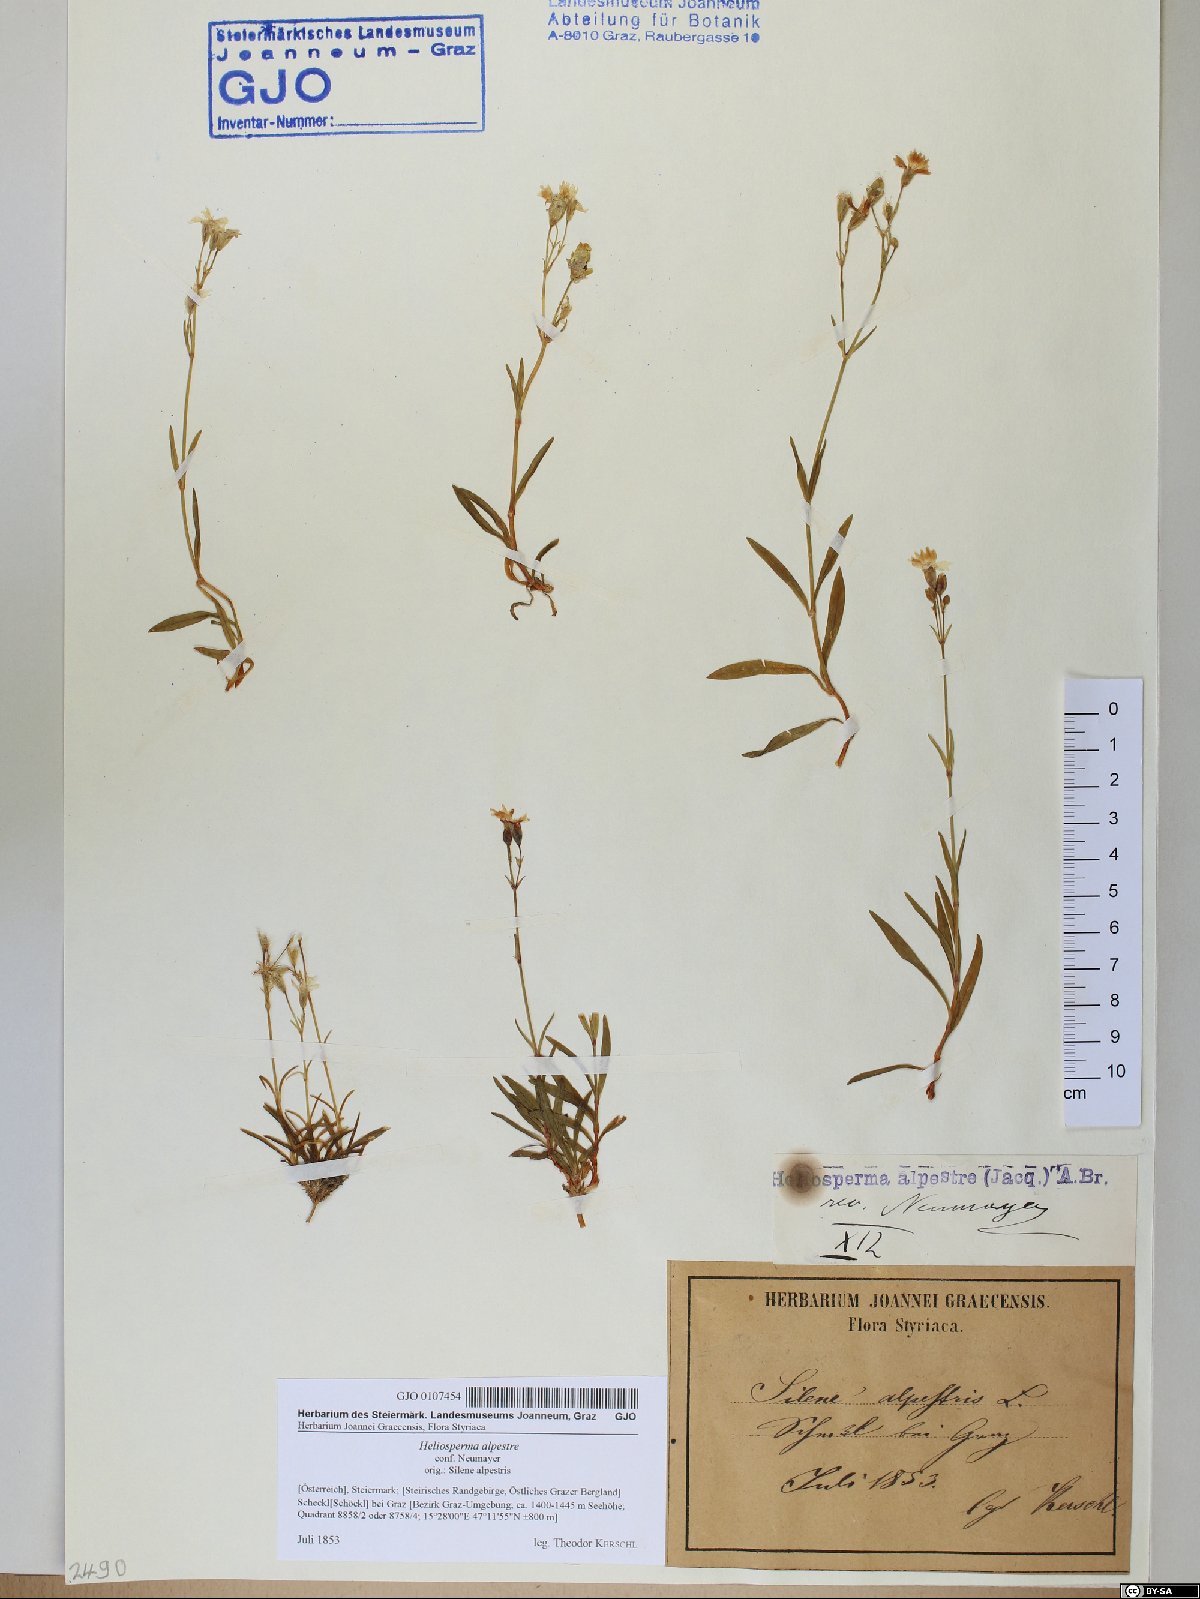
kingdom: Plantae
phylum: Tracheophyta
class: Magnoliopsida
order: Caryophyllales
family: Caryophyllaceae
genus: Heliosperma
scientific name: Heliosperma alpestre
